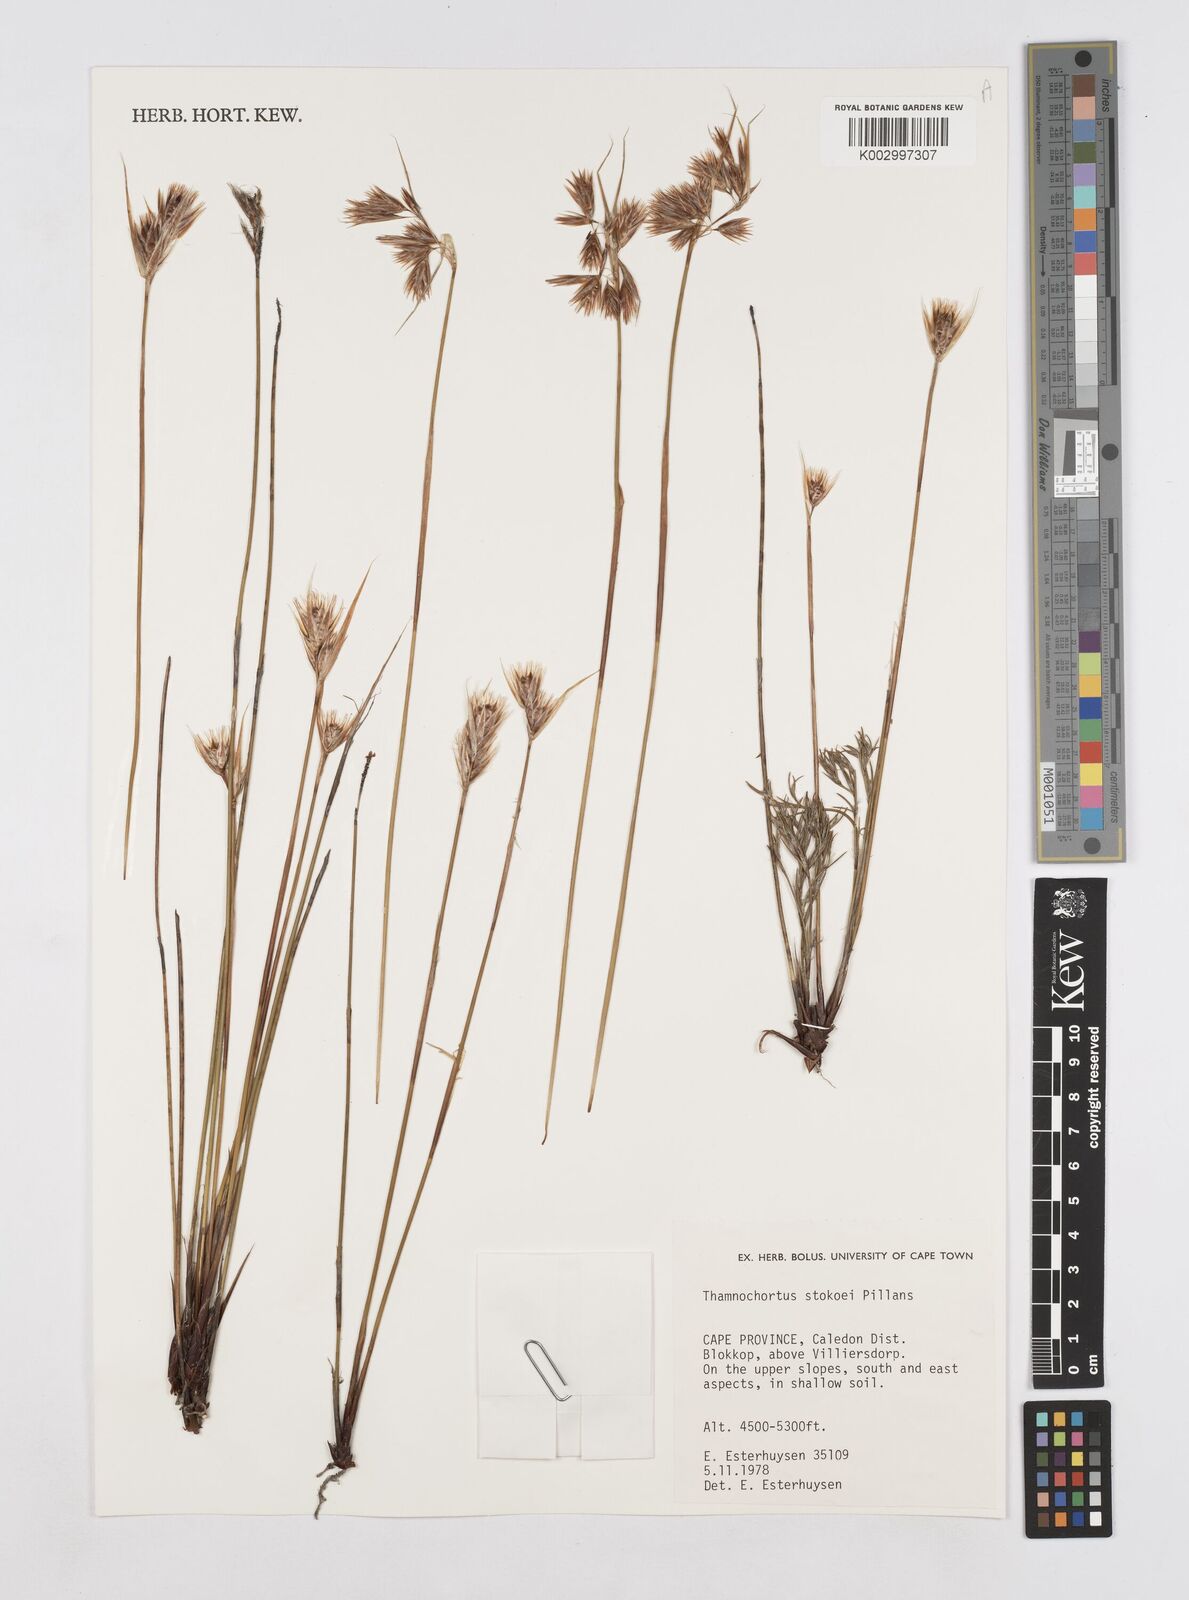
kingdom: Plantae
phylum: Tracheophyta
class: Liliopsida
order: Poales
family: Restionaceae
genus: Thamnochortus
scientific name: Thamnochortus stokoei
